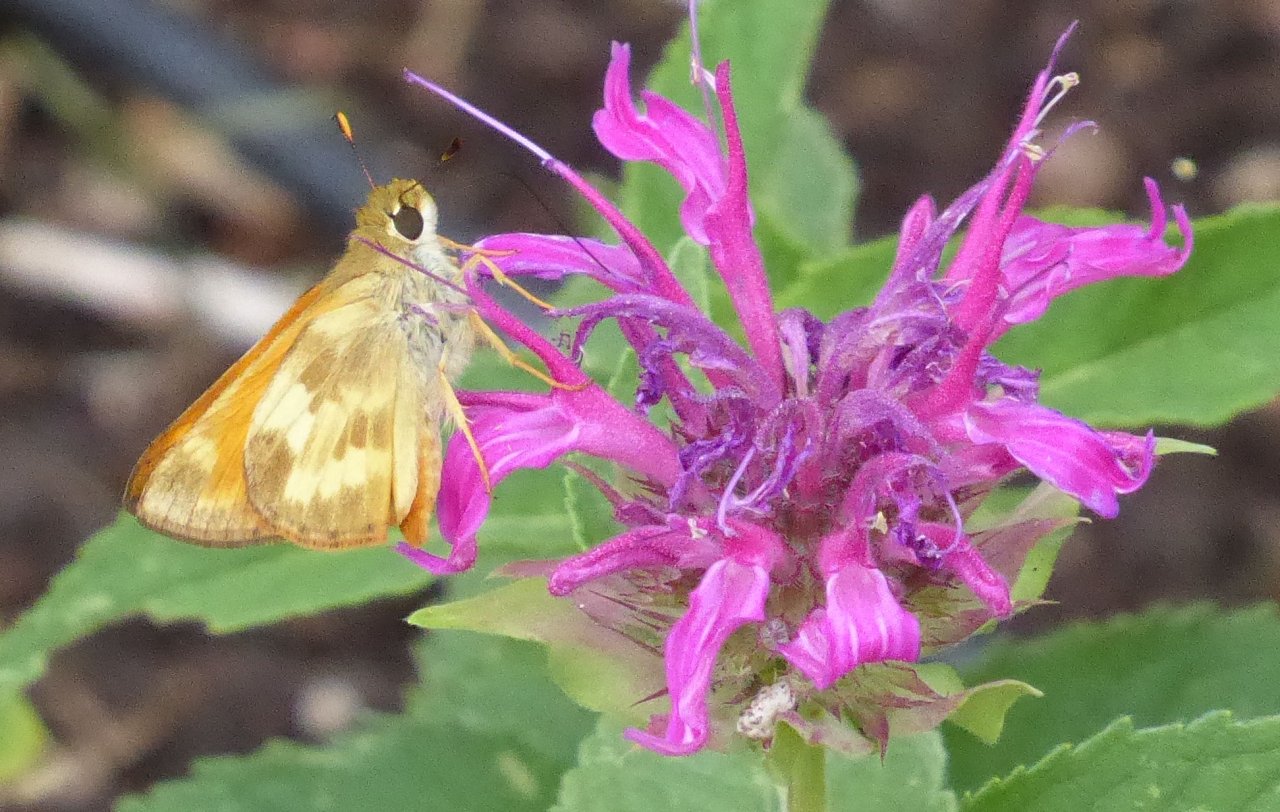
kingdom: Animalia
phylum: Arthropoda
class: Insecta
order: Lepidoptera
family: Hesperiidae
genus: Lon
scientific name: Lon taxiles
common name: Taxiles Skipper
